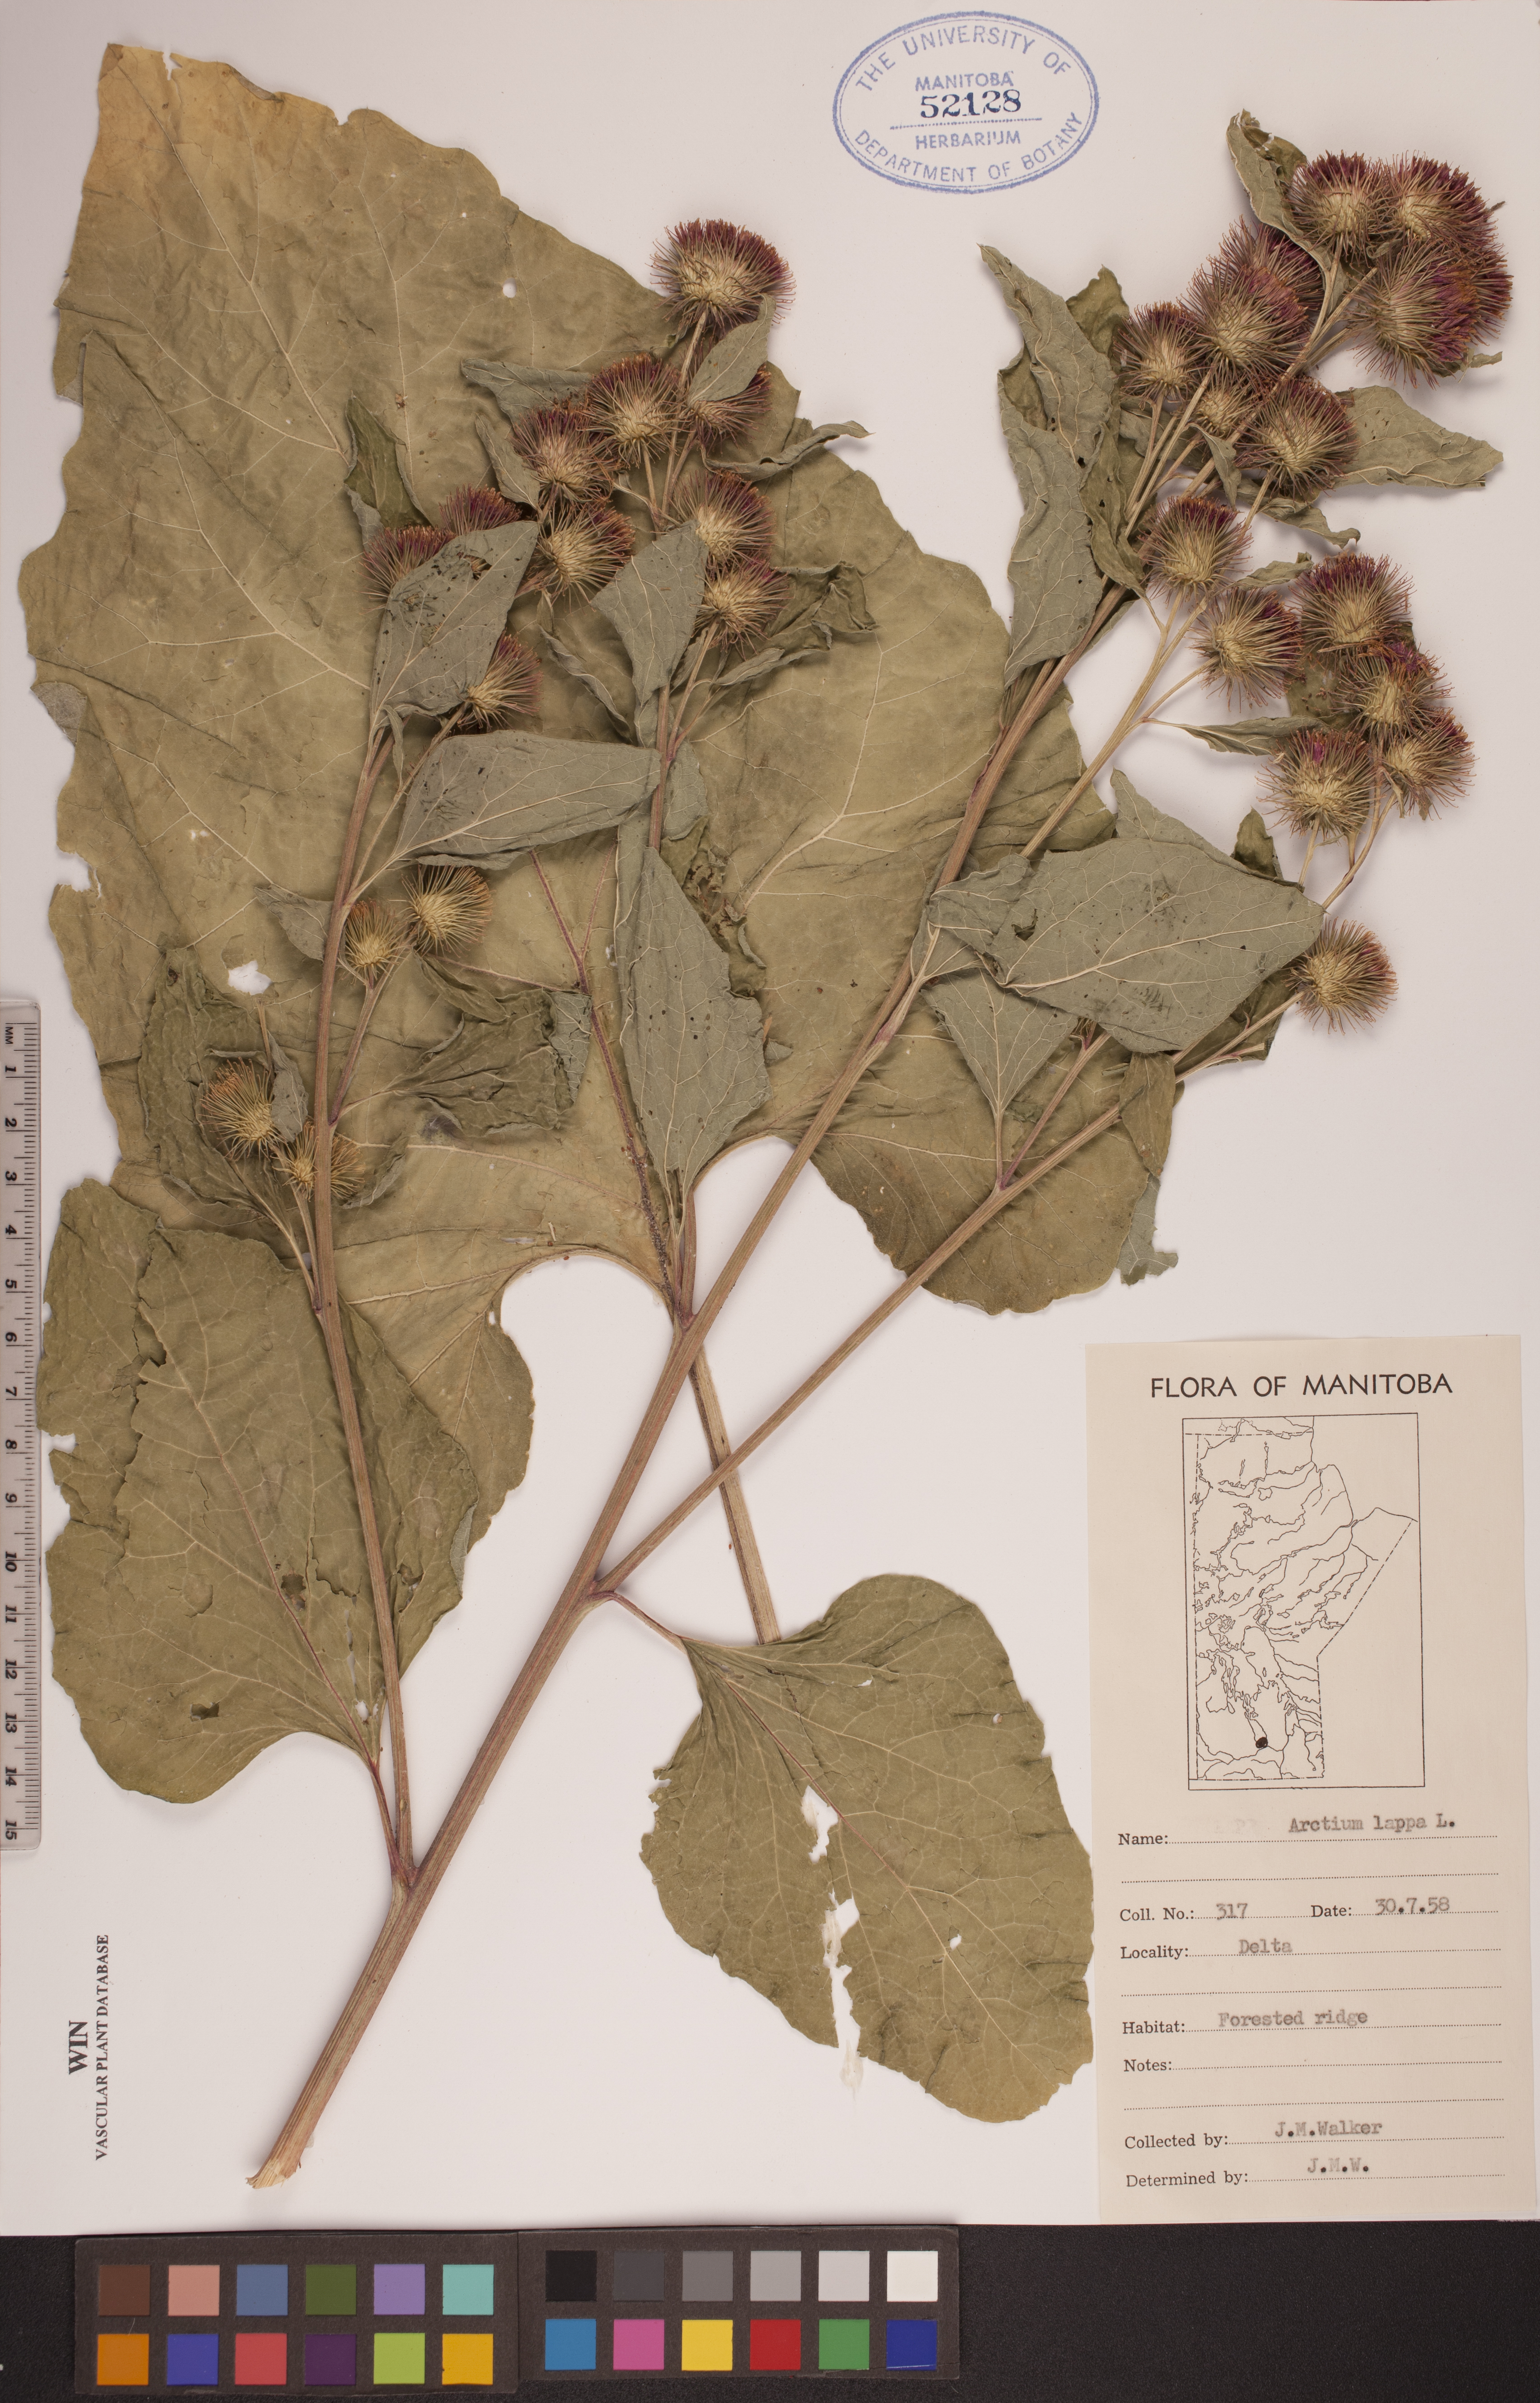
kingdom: Plantae
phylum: Tracheophyta
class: Magnoliopsida
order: Asterales
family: Asteraceae
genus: Arctium
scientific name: Arctium lappa
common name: Greater burdock
